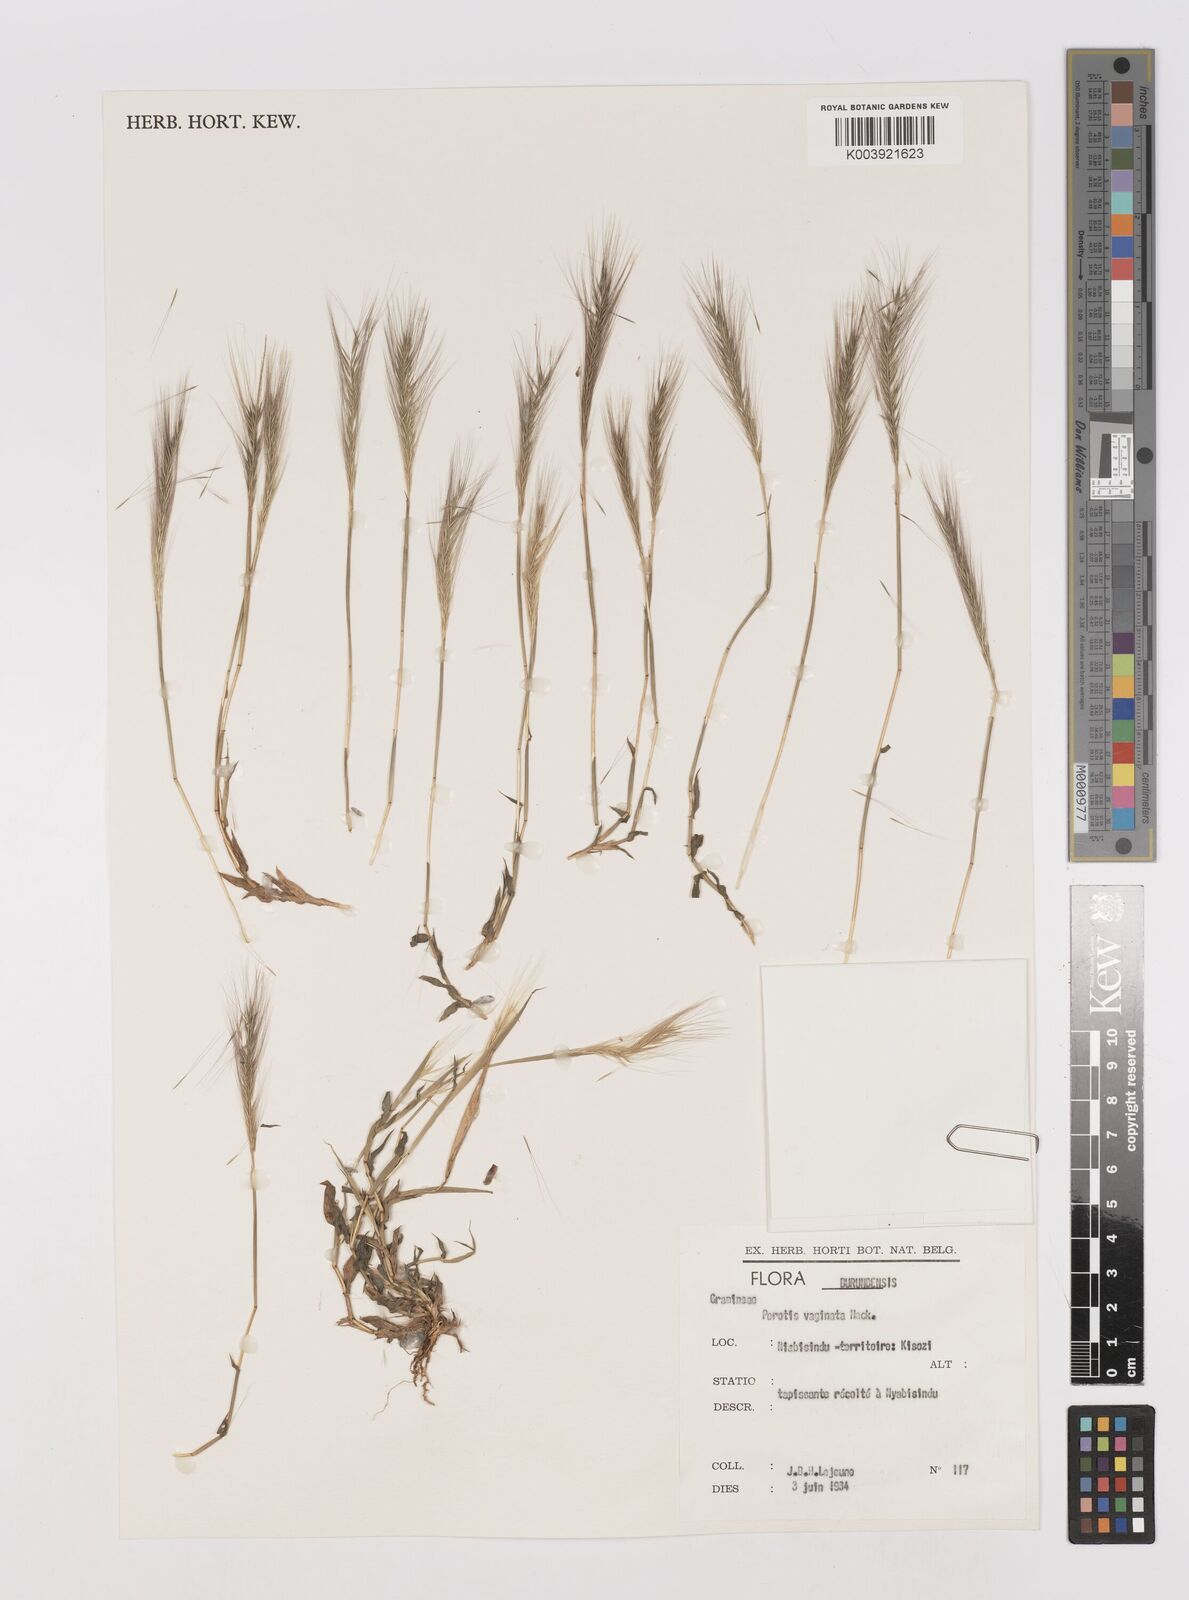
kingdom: Plantae
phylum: Tracheophyta
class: Liliopsida
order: Poales
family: Poaceae
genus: Perotis
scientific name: Perotis vaginata
